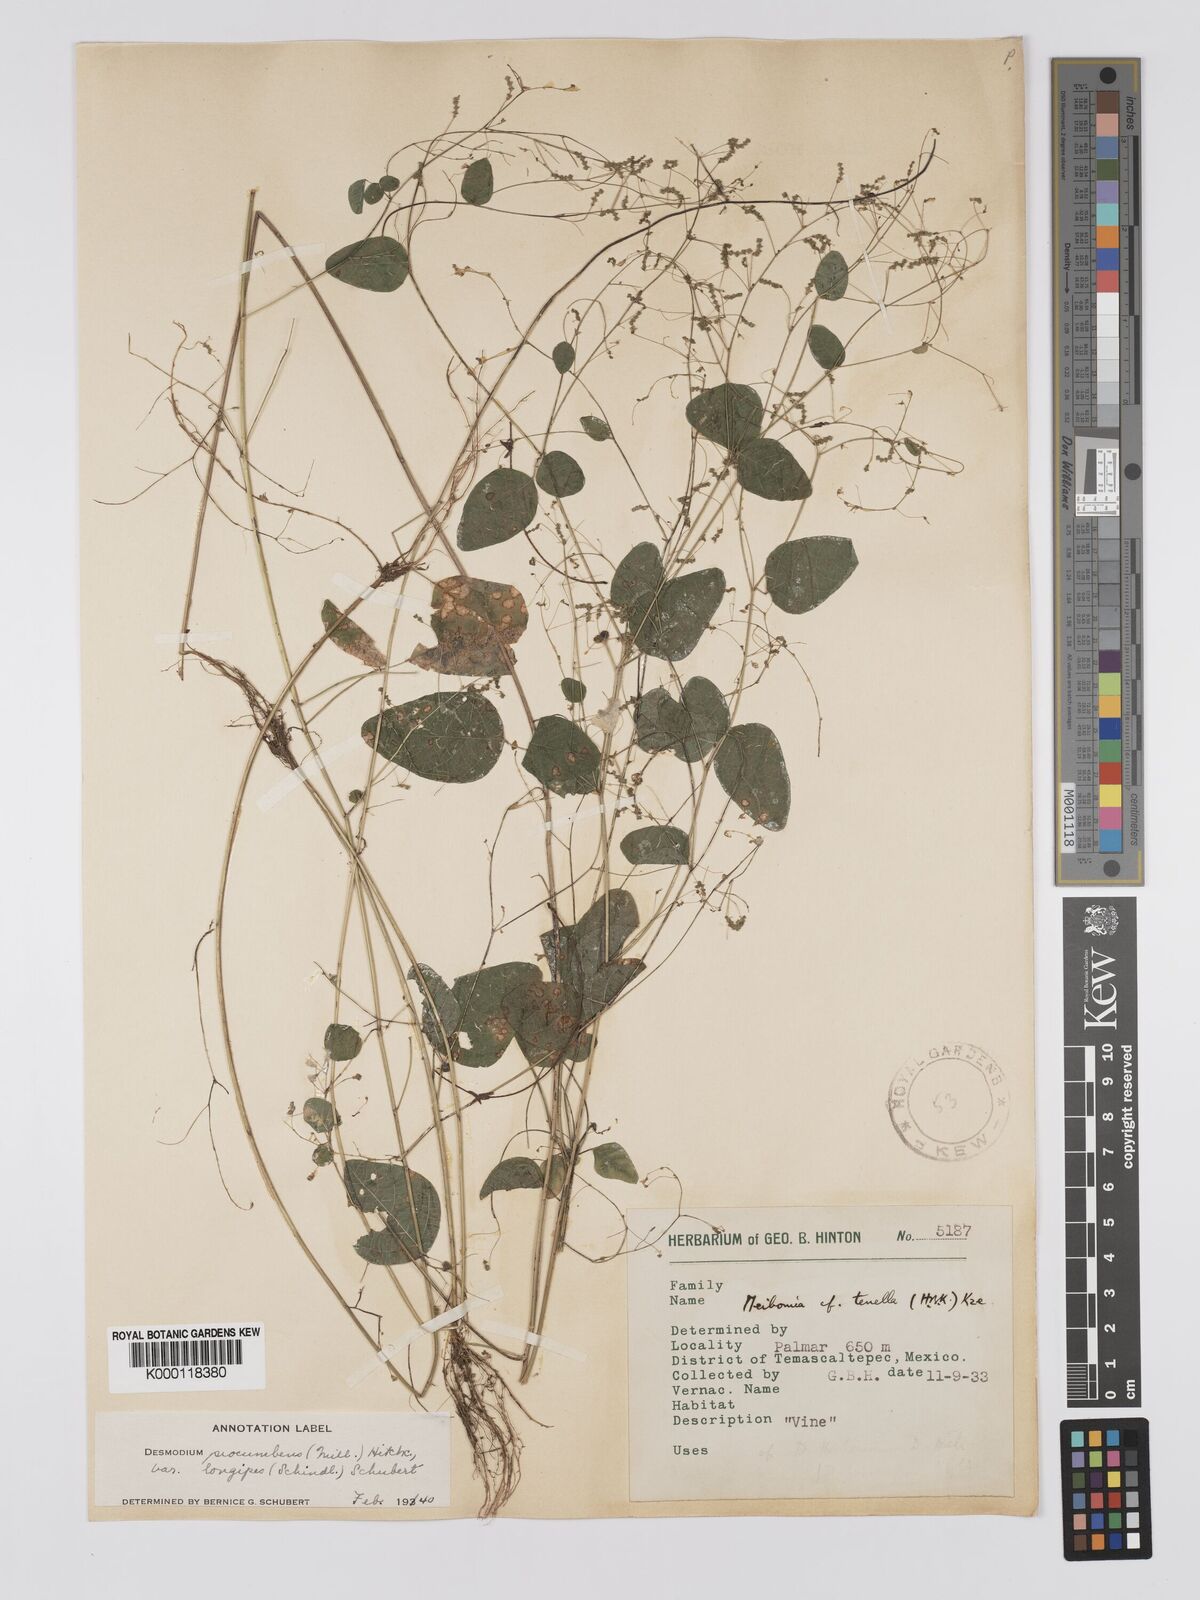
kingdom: Plantae
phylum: Tracheophyta
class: Magnoliopsida
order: Fabales
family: Fabaceae
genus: Desmodium
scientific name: Desmodium procumbens
